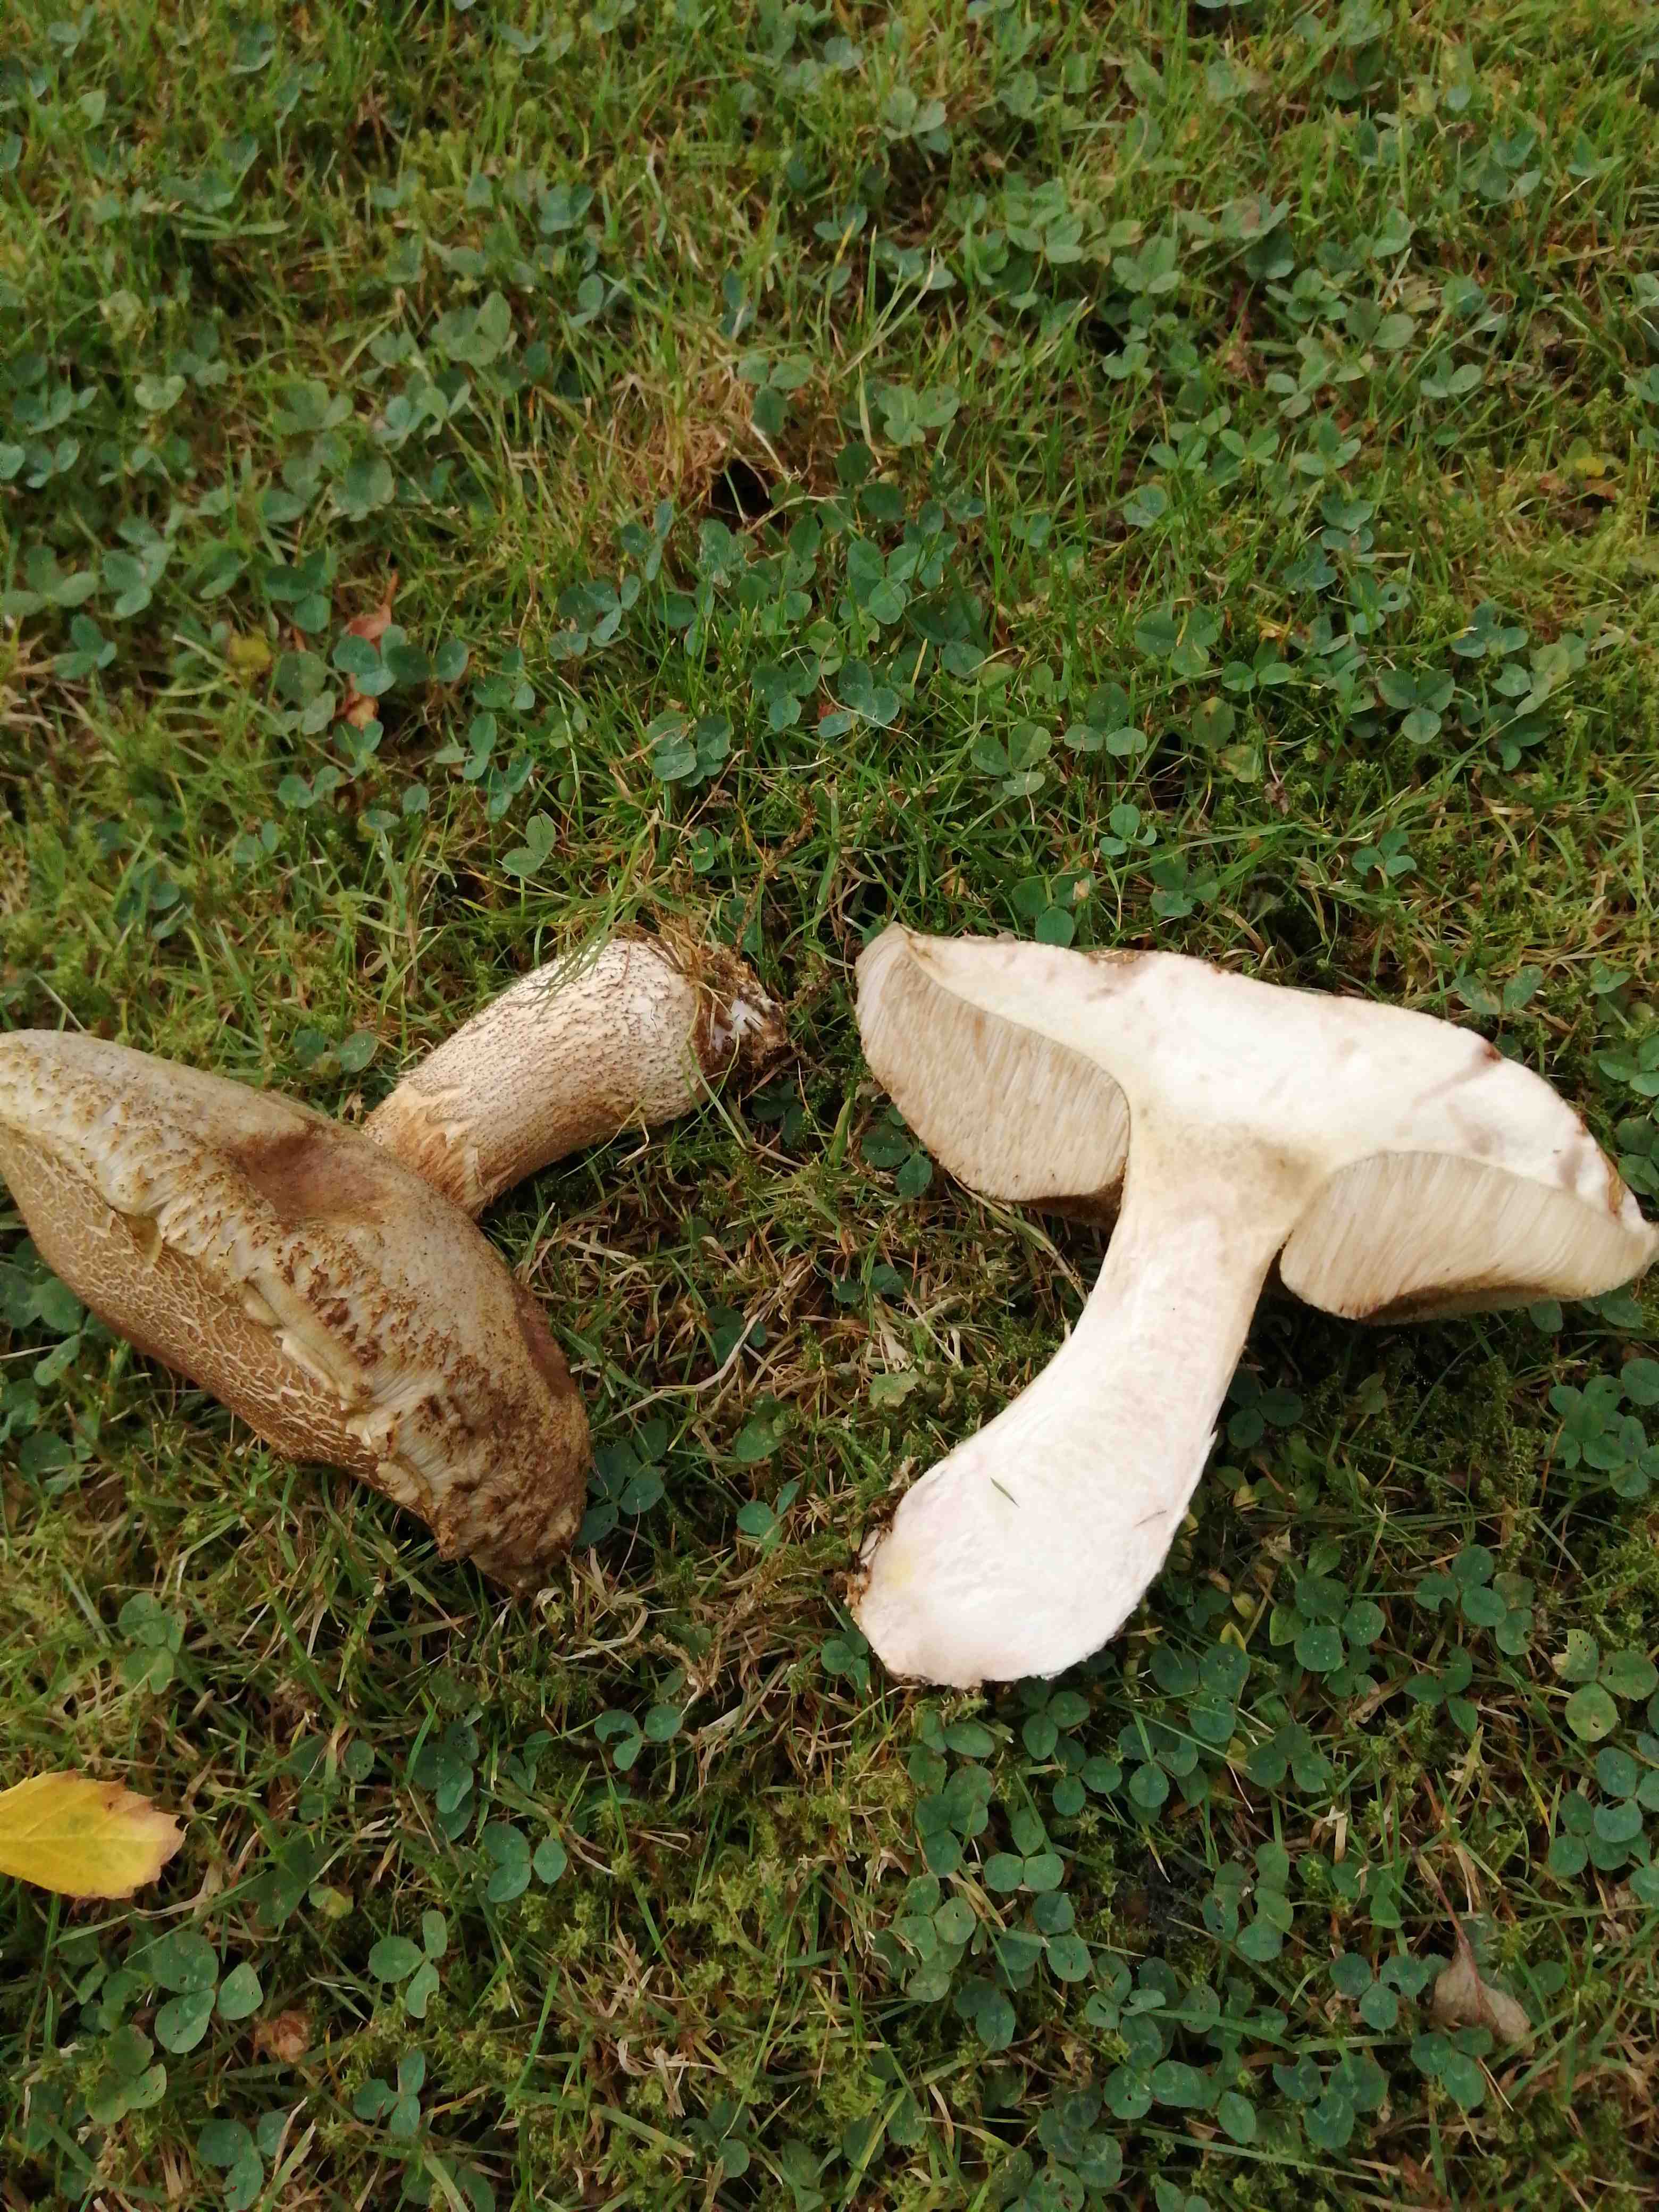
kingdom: Fungi
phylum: Basidiomycota
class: Agaricomycetes
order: Boletales
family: Boletaceae
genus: Leccinum
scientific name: Leccinum scabrum
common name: brun skælrørhat
